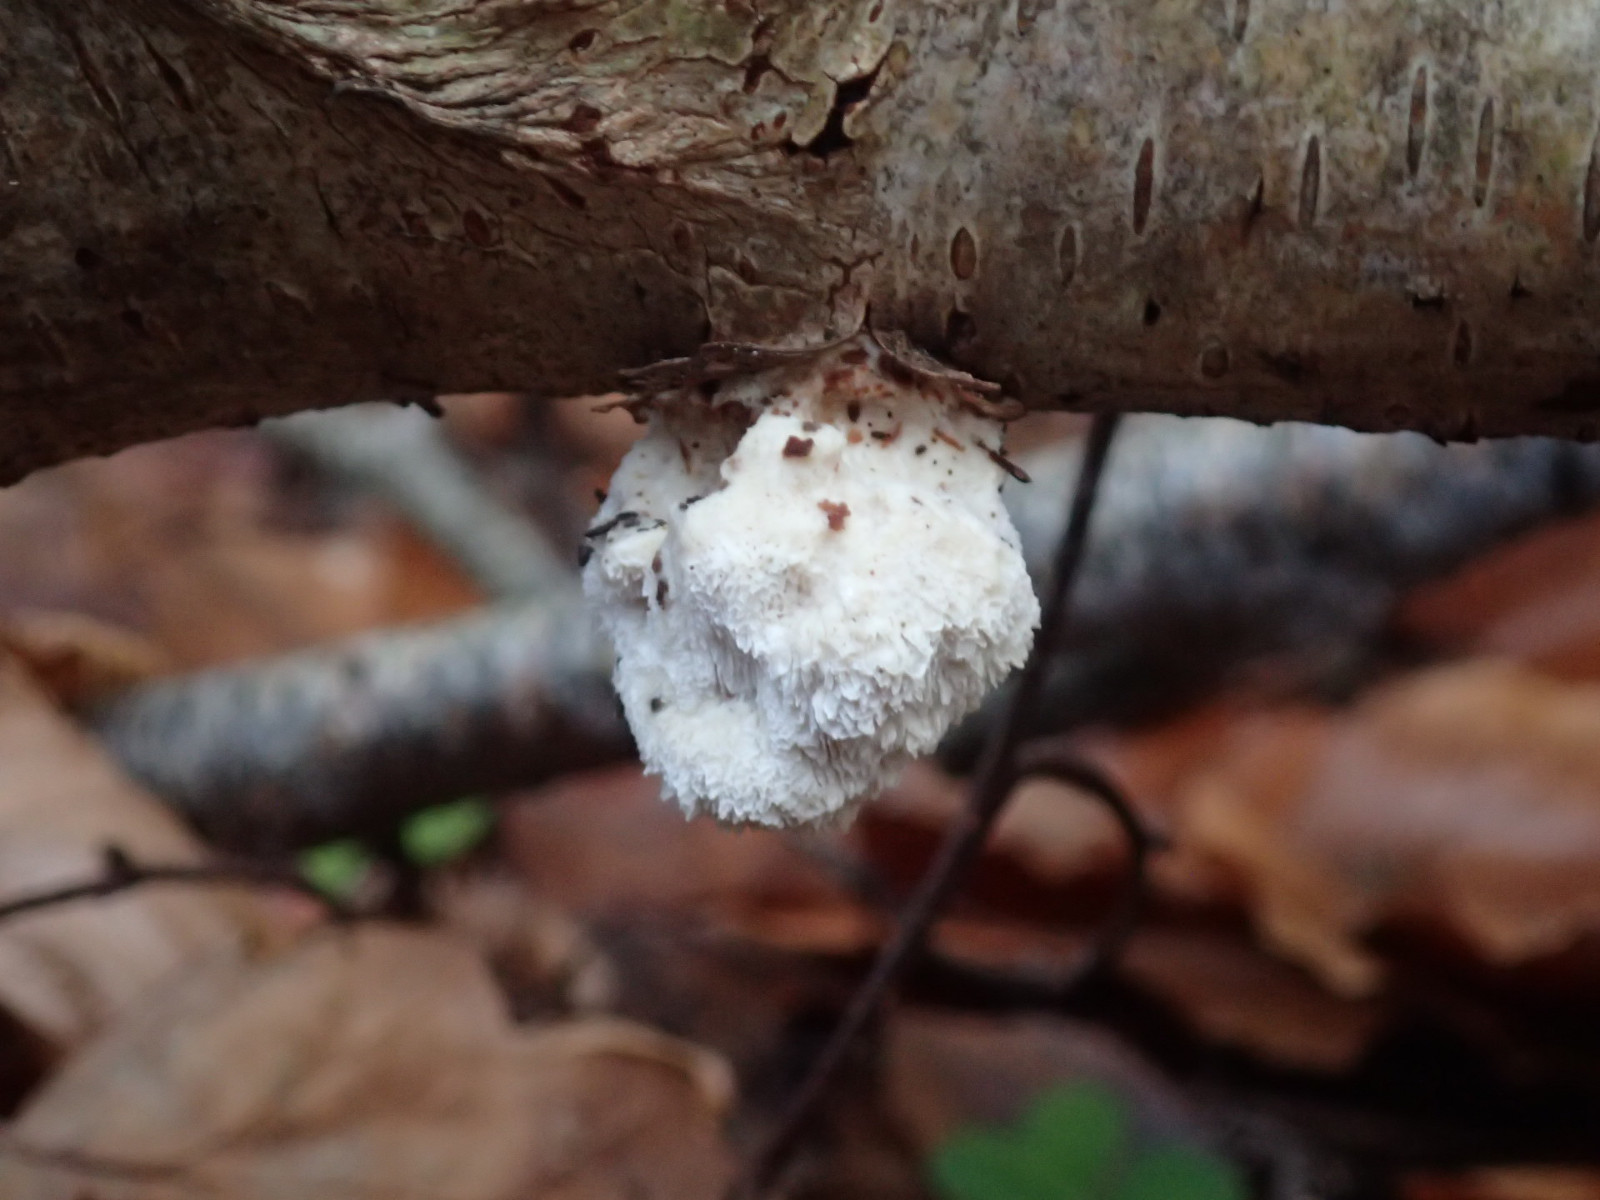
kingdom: Fungi
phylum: Basidiomycota
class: Agaricomycetes
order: Polyporales
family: Fomitopsidaceae
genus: Fomitopsis
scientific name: Fomitopsis betulina
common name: birkeporesvamp
